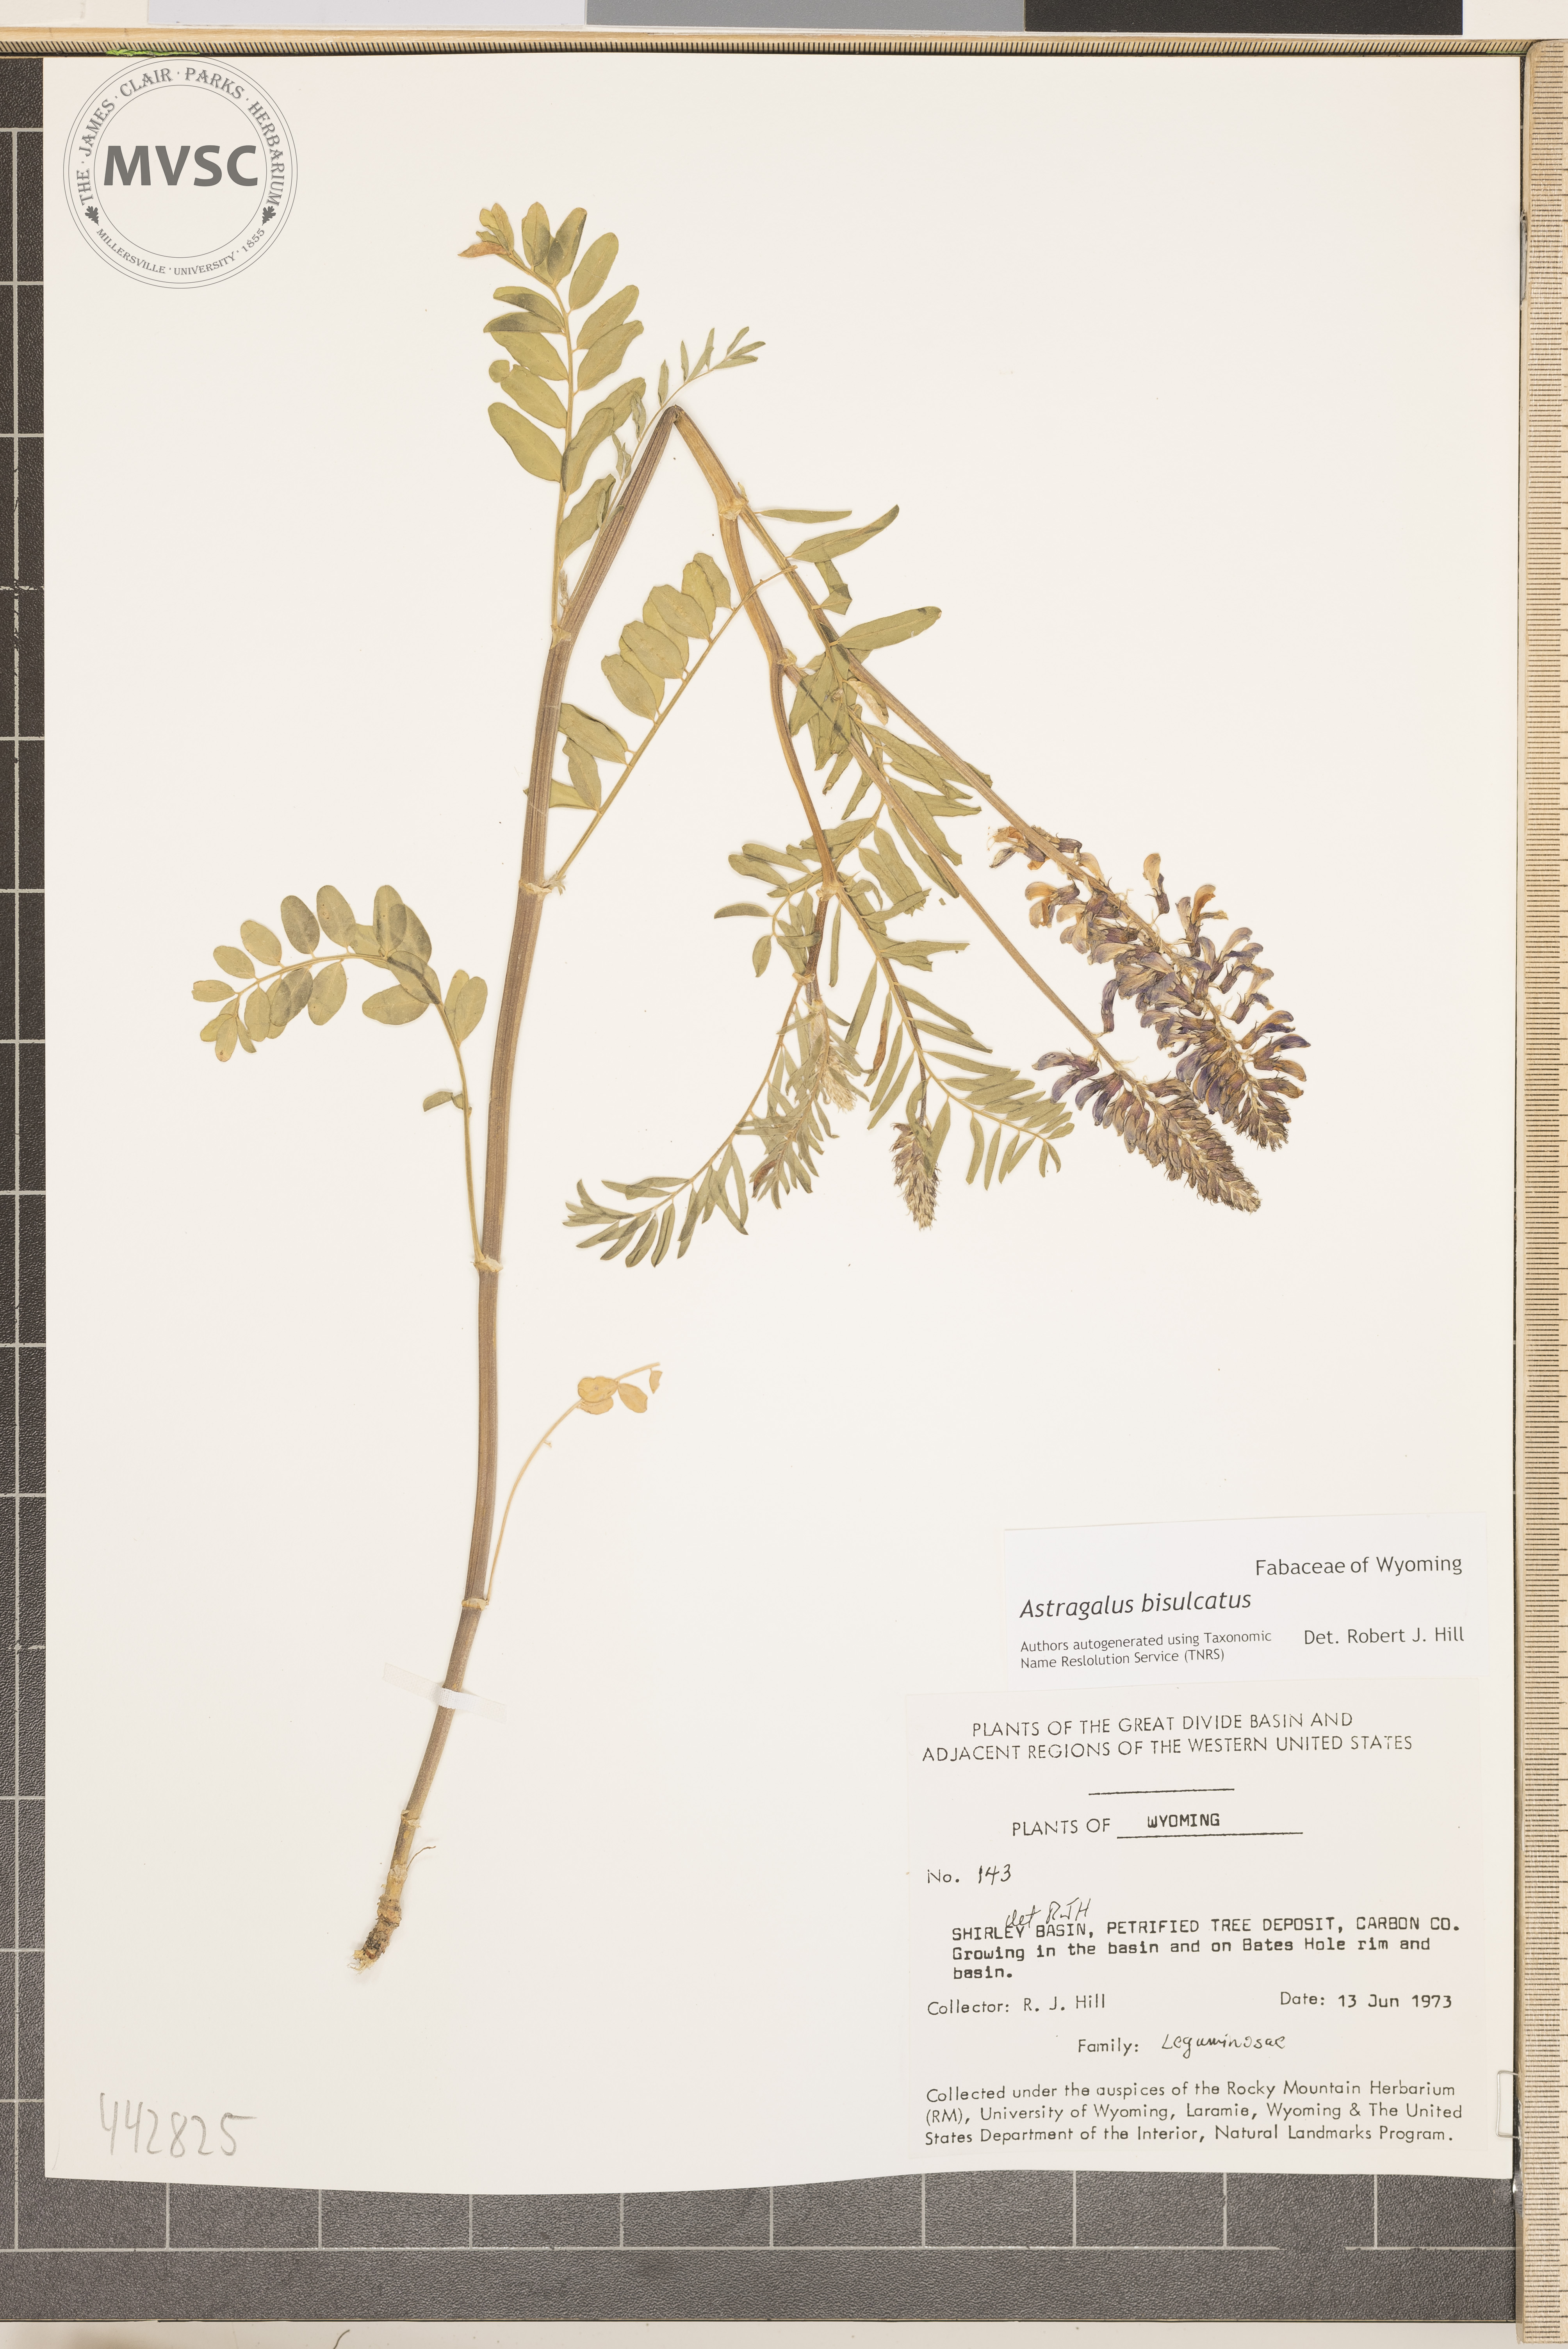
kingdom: Plantae
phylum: Tracheophyta
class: Magnoliopsida
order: Fabales
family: Fabaceae
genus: Astragalus
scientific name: Astragalus bisulcatus
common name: Two-groove milk-vetch
